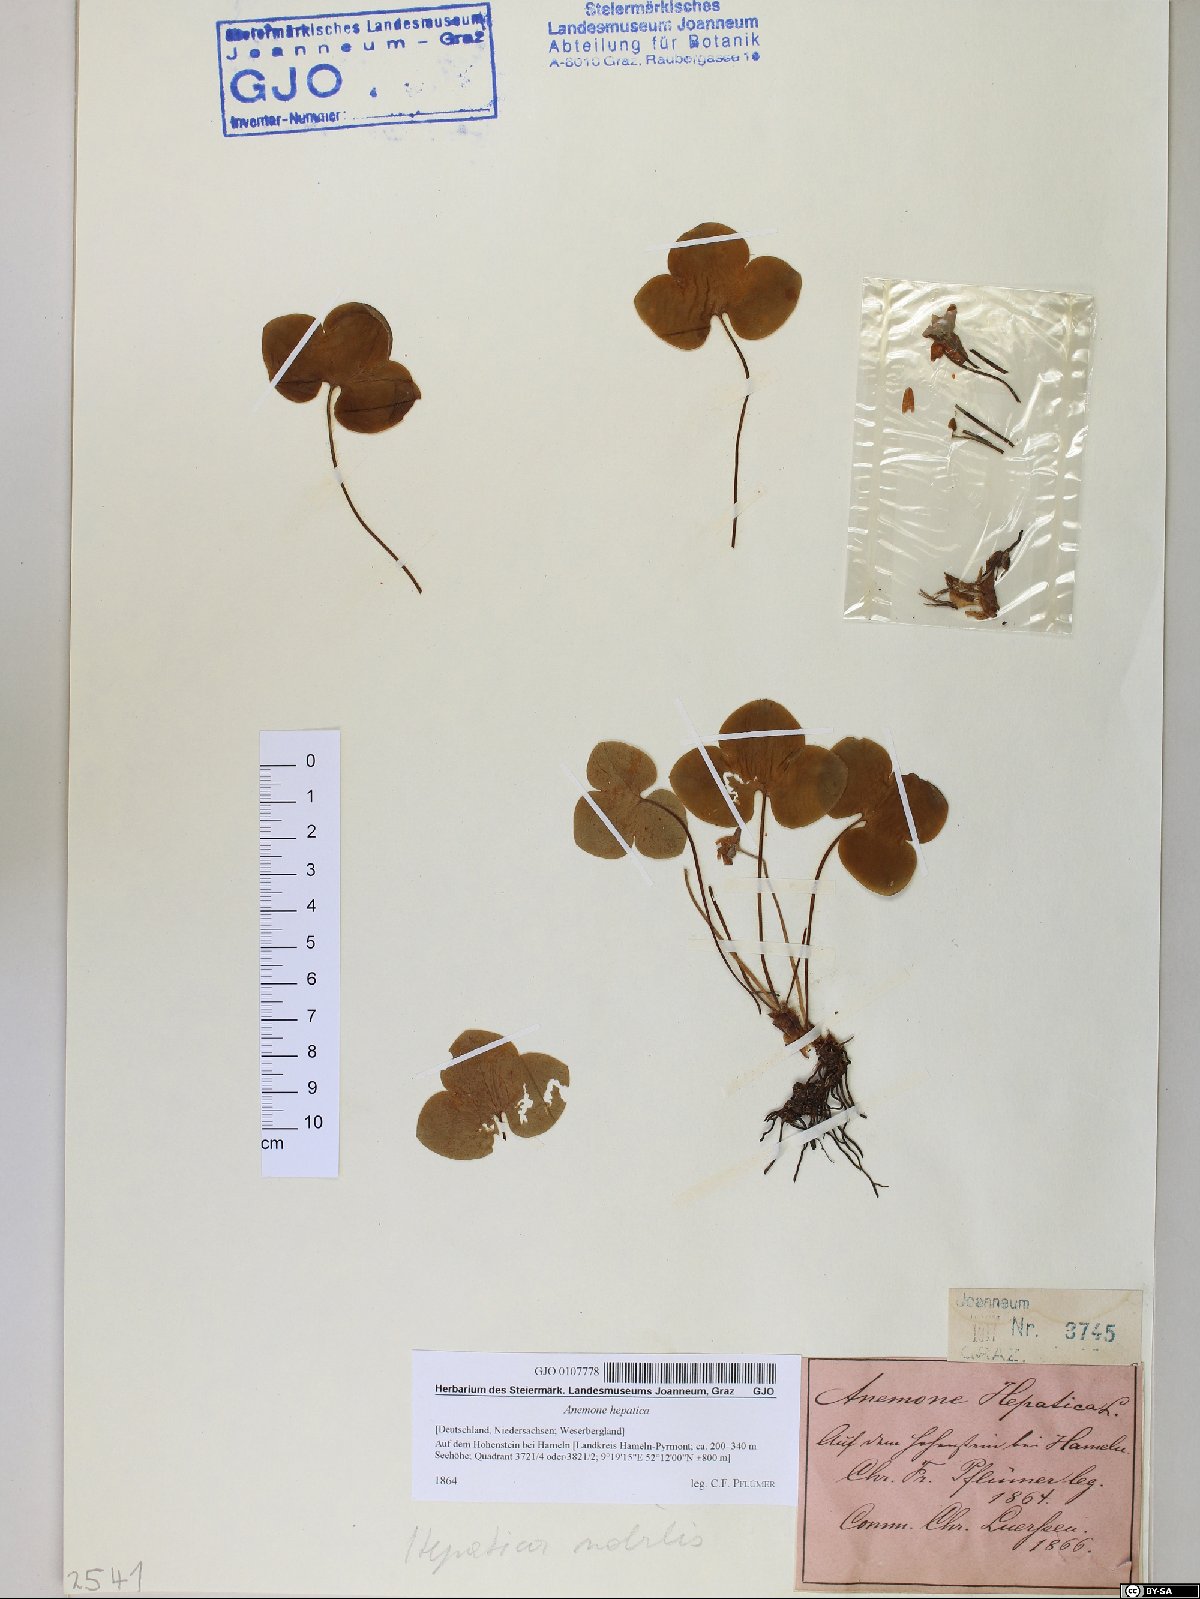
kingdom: Plantae
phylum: Tracheophyta
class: Magnoliopsida
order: Ranunculales
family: Ranunculaceae
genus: Hepatica
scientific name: Hepatica nobilis
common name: Liverleaf
